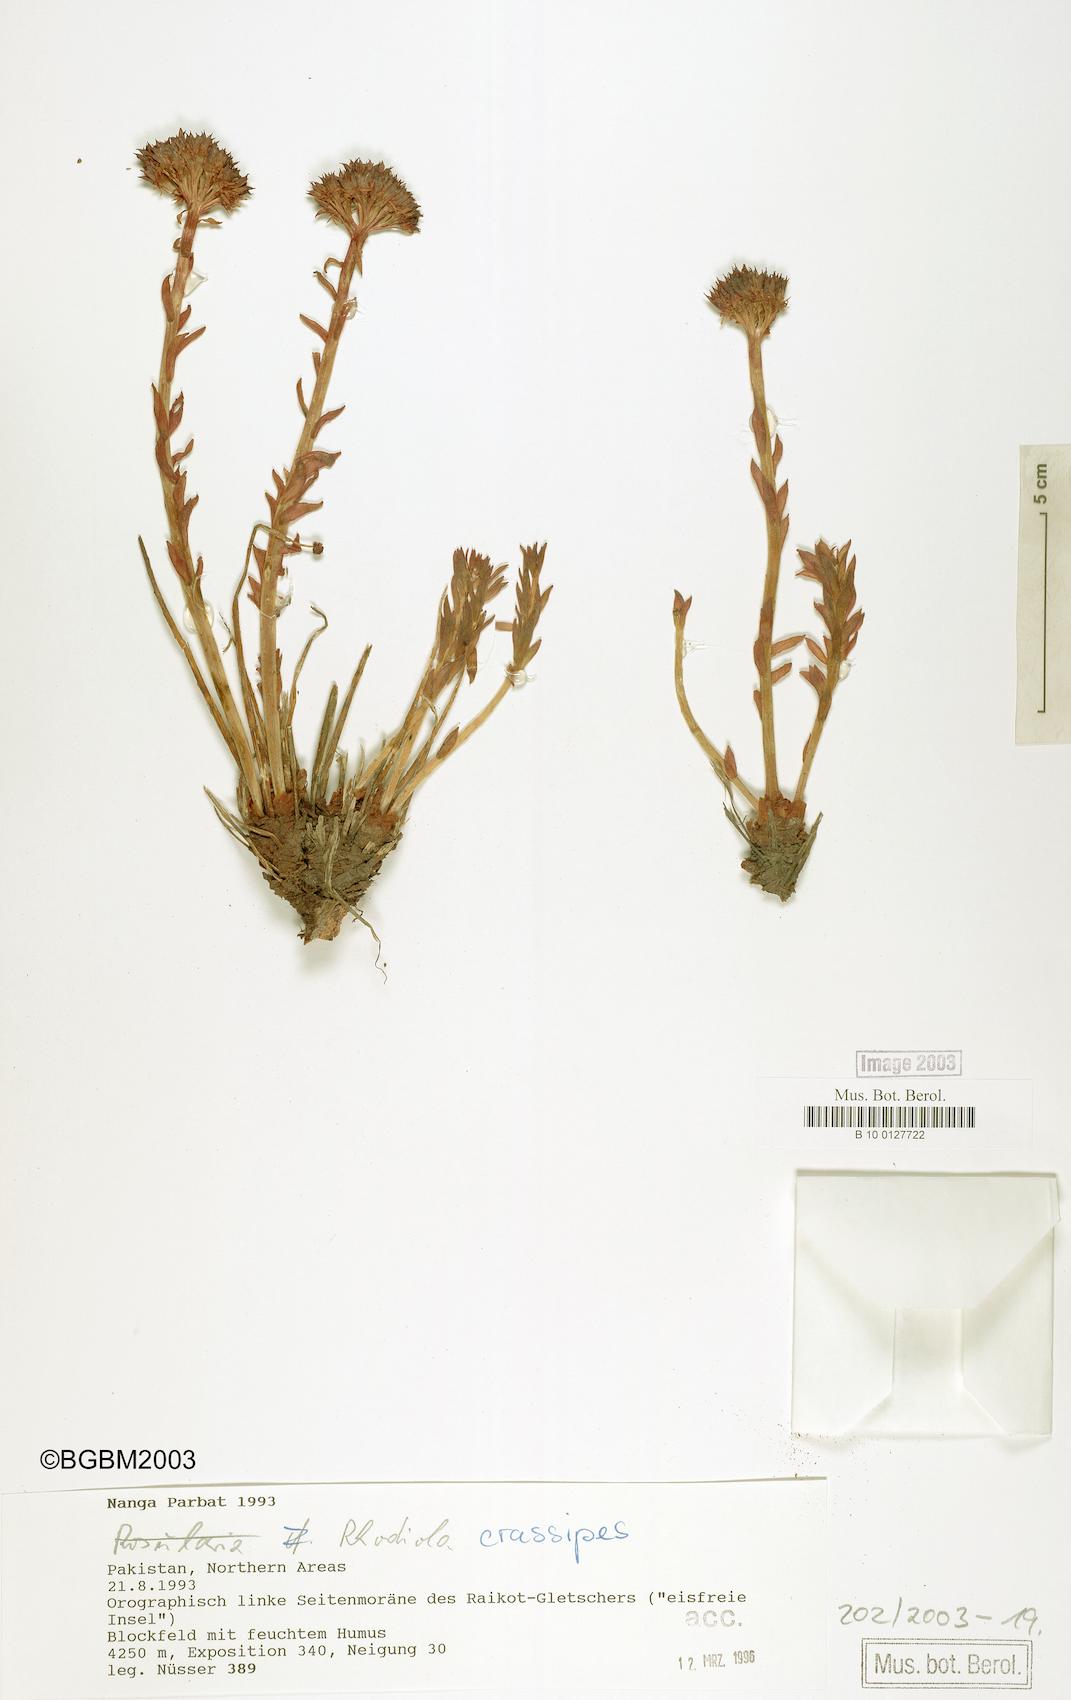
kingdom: Plantae
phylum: Tracheophyta
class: Magnoliopsida
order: Saxifragales
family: Crassulaceae
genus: Rhodiola
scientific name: Rhodiola wallichiana
